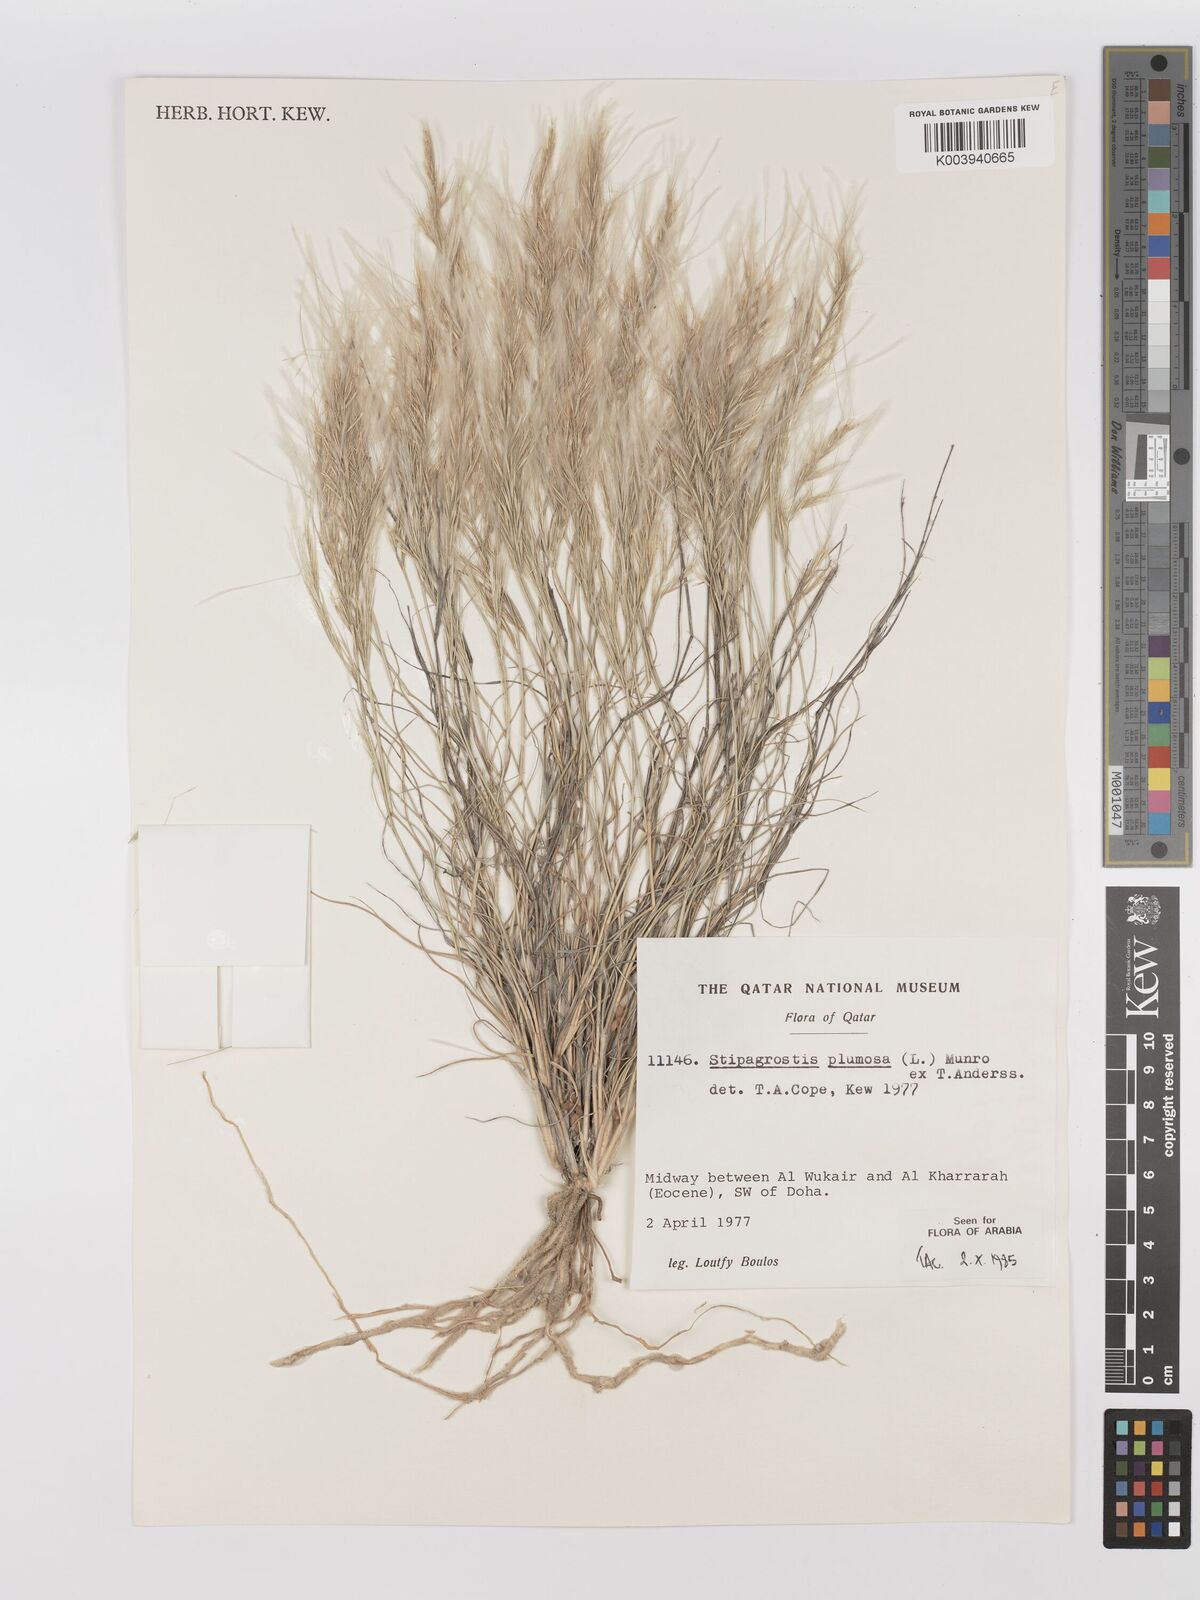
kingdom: Plantae
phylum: Tracheophyta
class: Liliopsida
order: Poales
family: Poaceae
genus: Stipagrostis
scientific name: Stipagrostis plumosa
